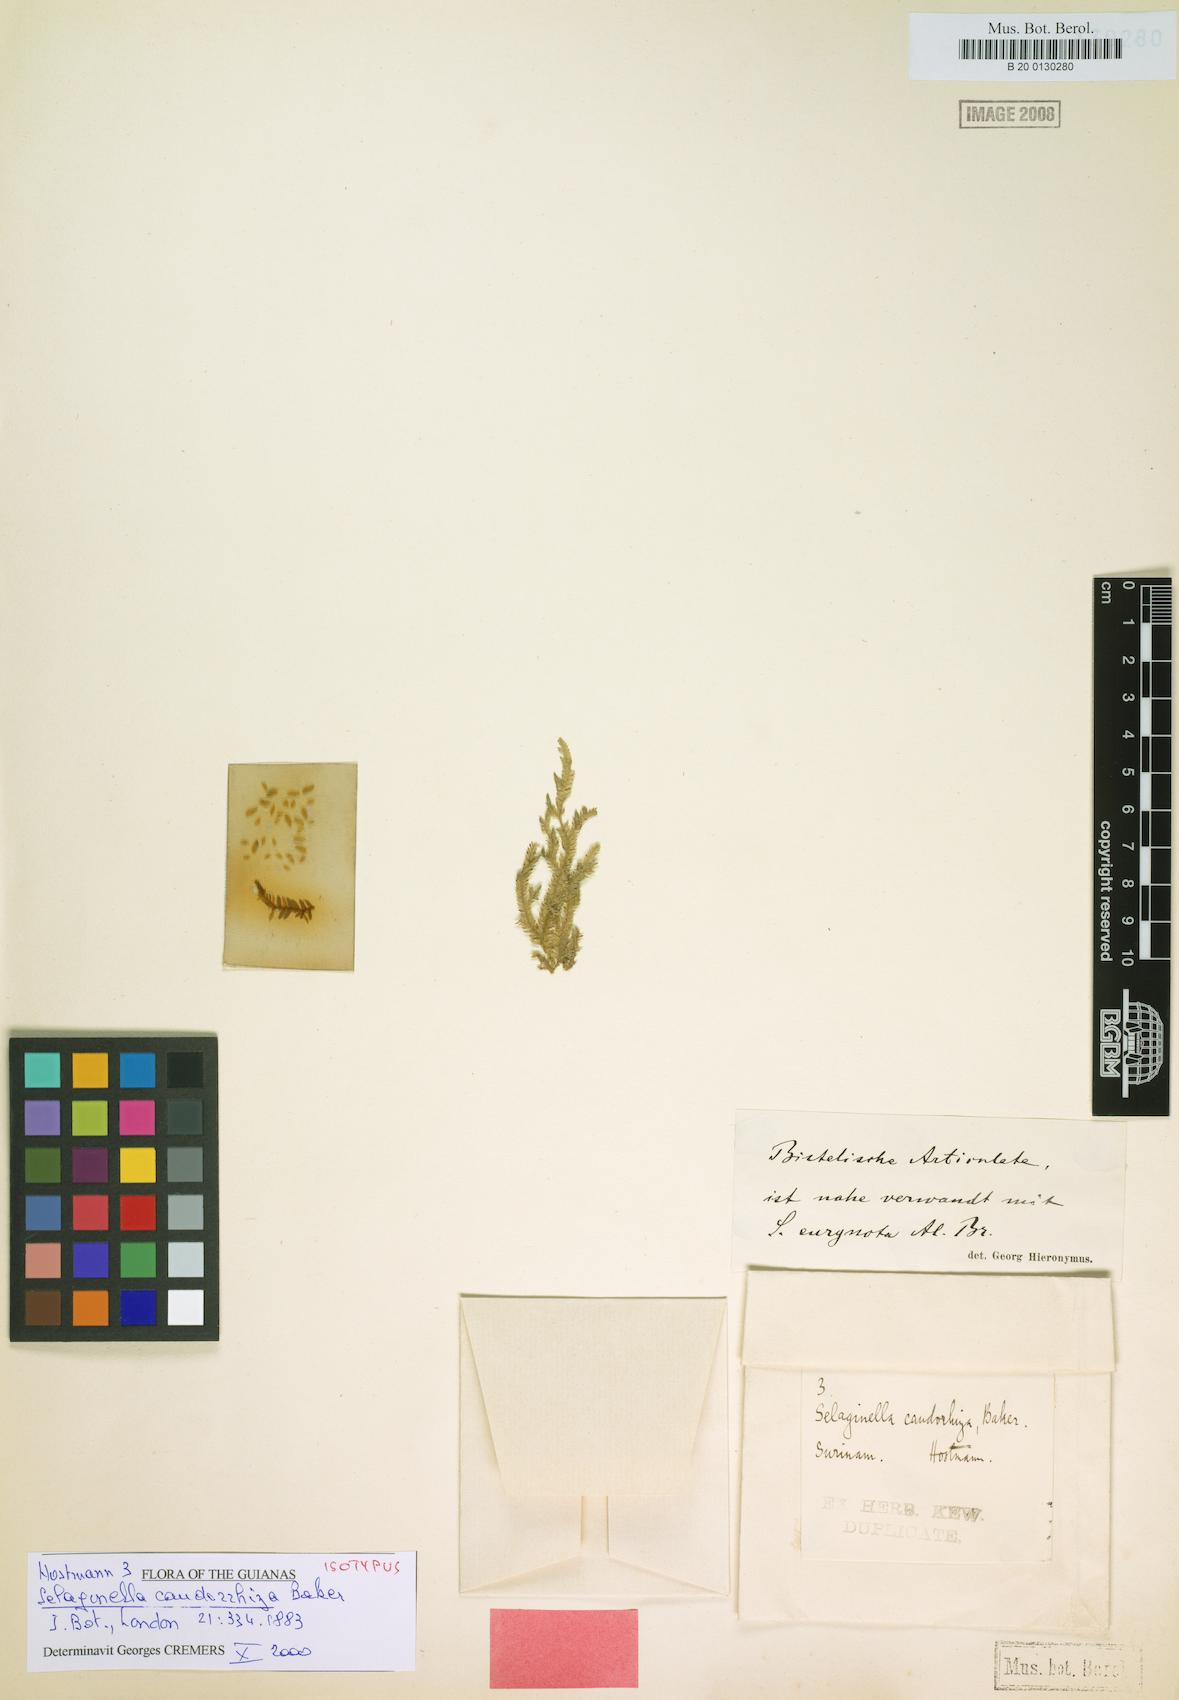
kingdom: Plantae
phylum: Tracheophyta
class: Lycopodiopsida
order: Selaginellales
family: Selaginellaceae
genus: Selaginella
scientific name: Selaginella sulcata
